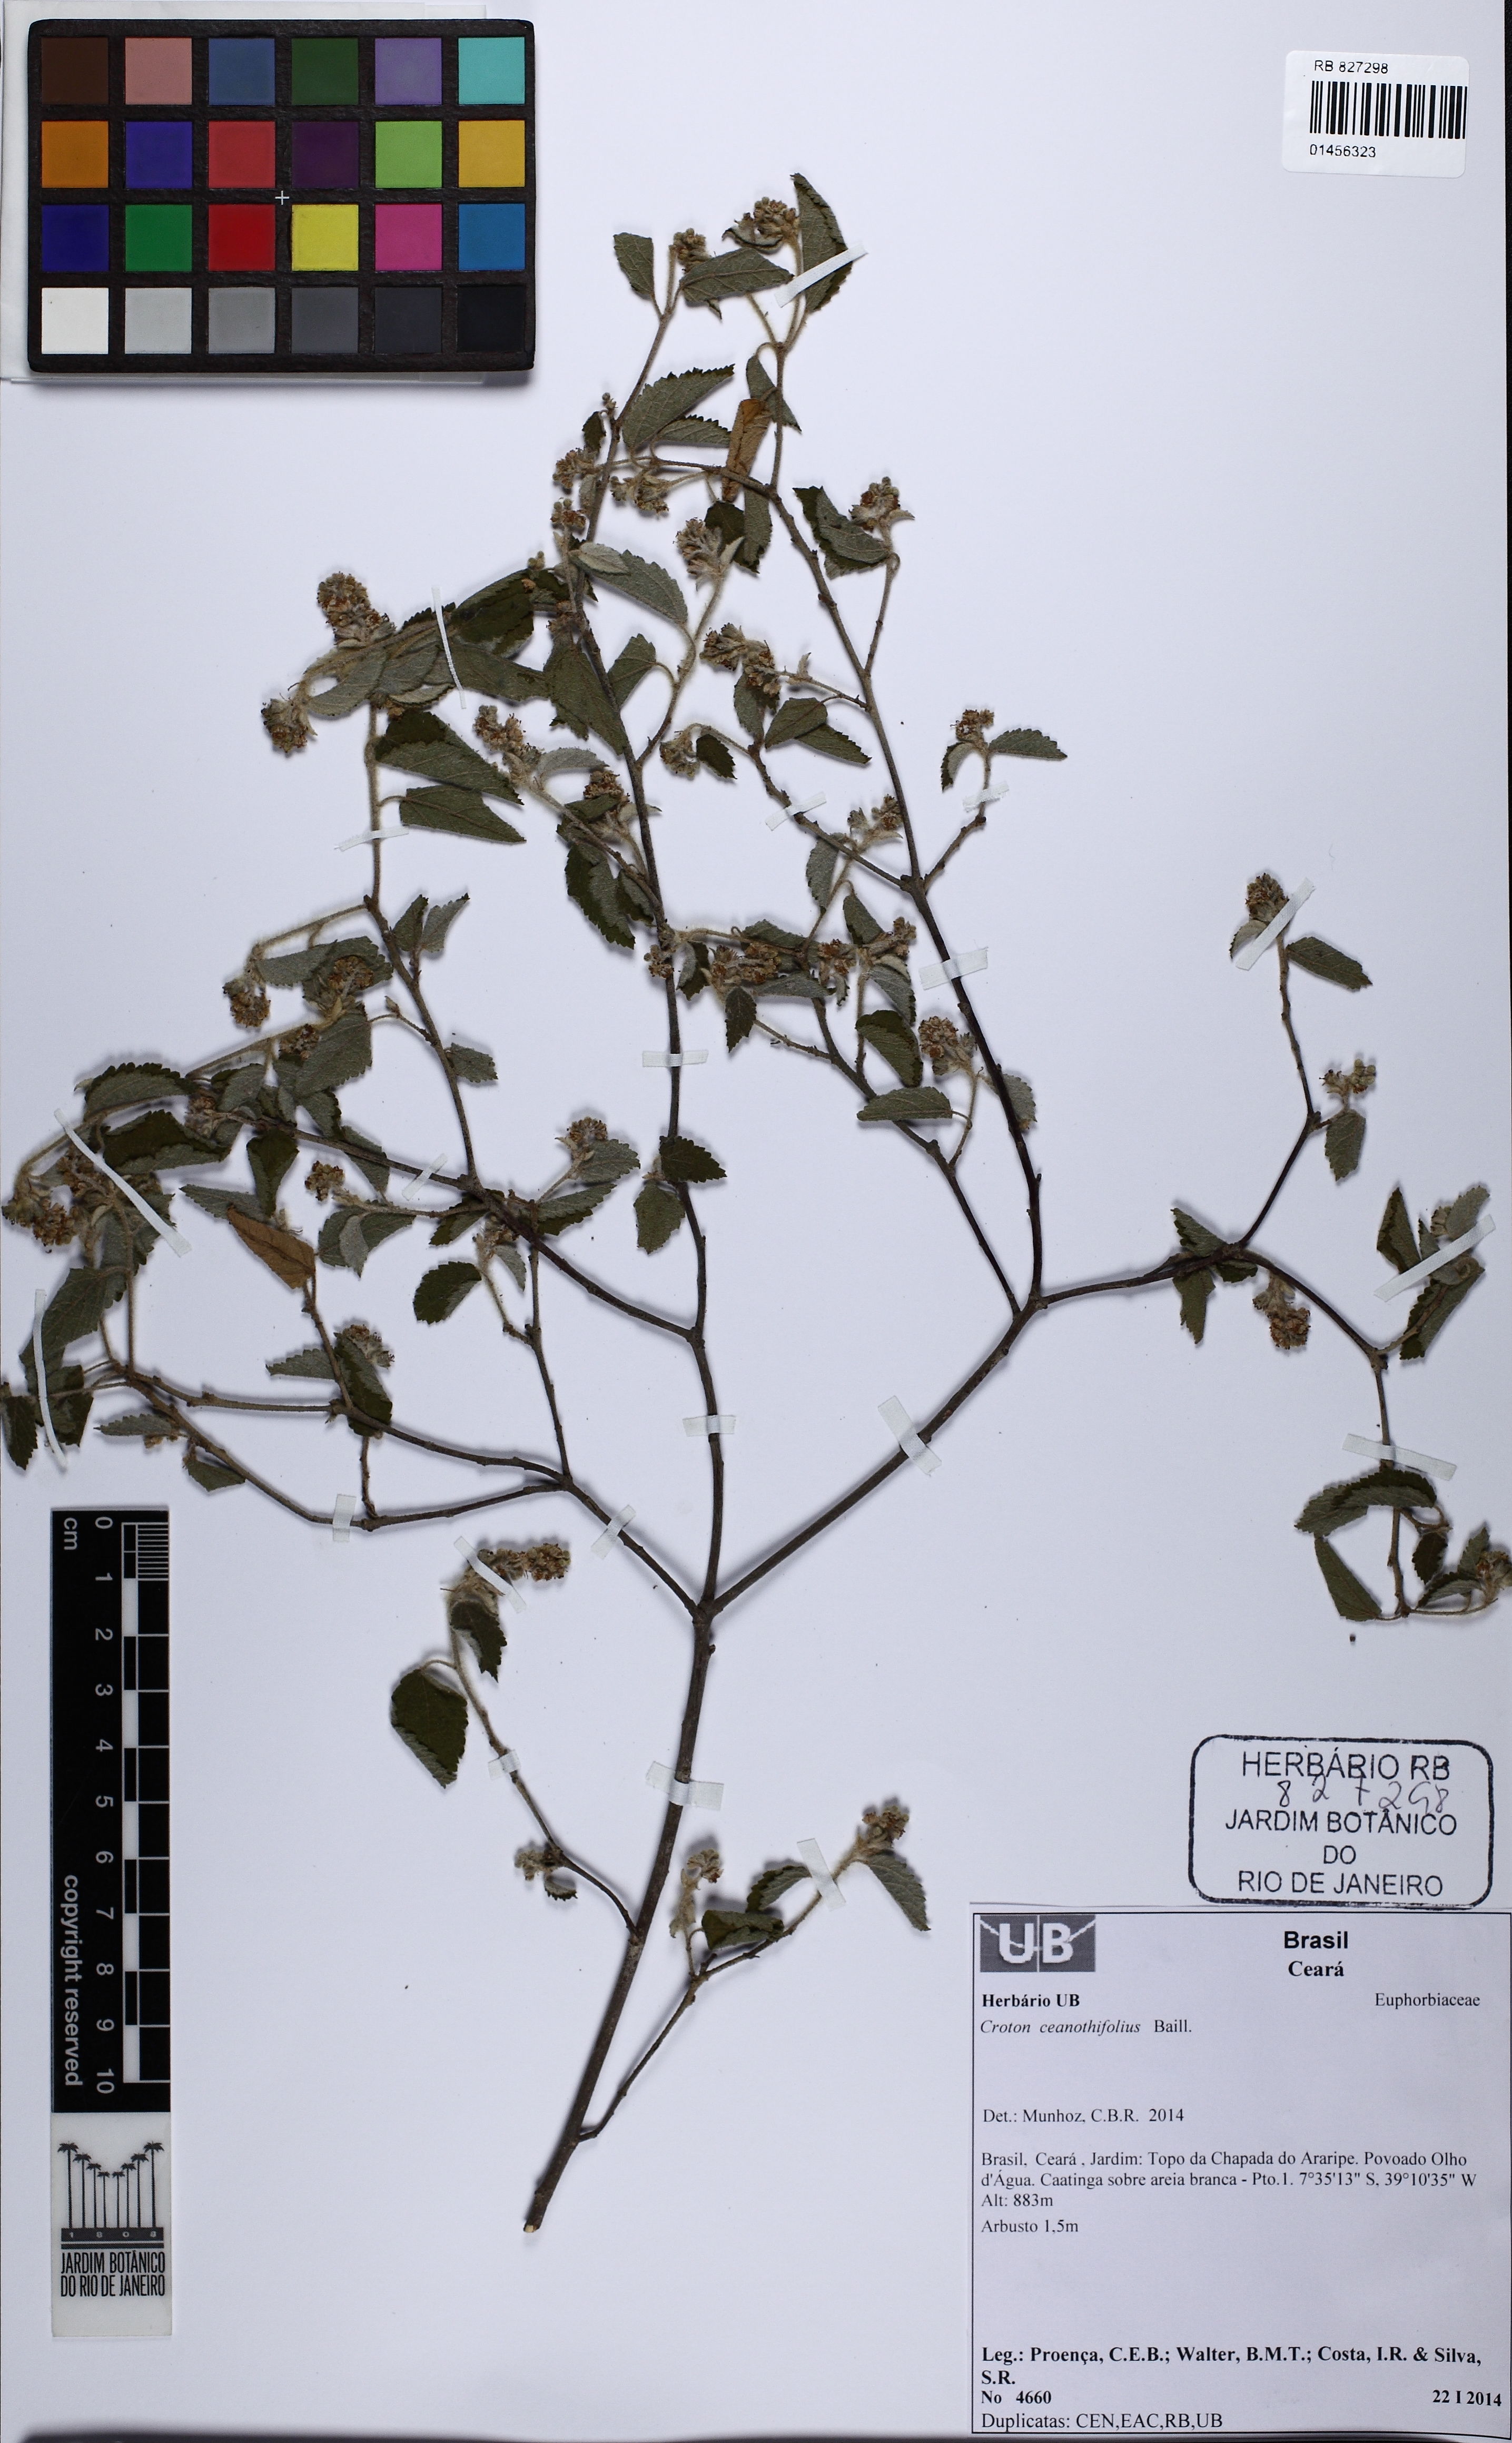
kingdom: Plantae
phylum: Tracheophyta
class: Magnoliopsida
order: Malpighiales
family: Euphorbiaceae
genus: Croton
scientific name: Croton ceanothifolius
